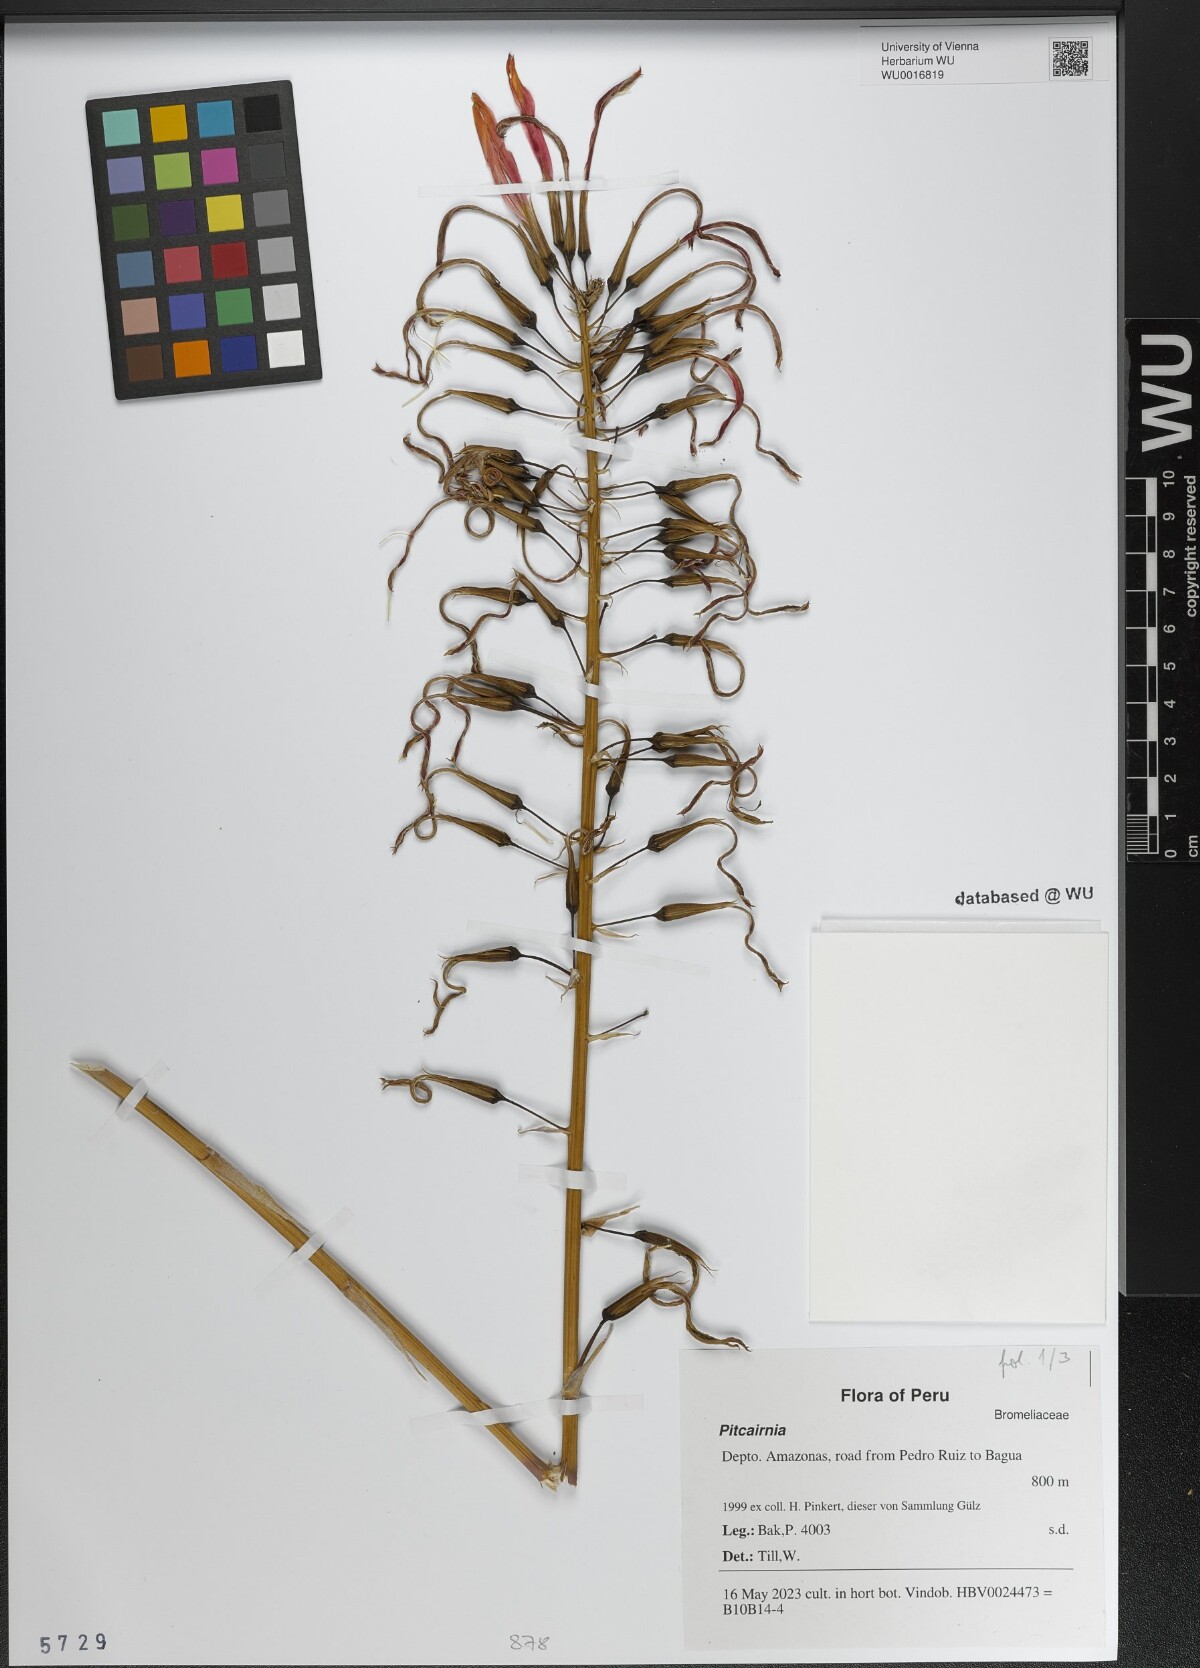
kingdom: Plantae
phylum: Tracheophyta
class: Liliopsida
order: Poales
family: Bromeliaceae
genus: Pitcairnia
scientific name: Pitcairnia
